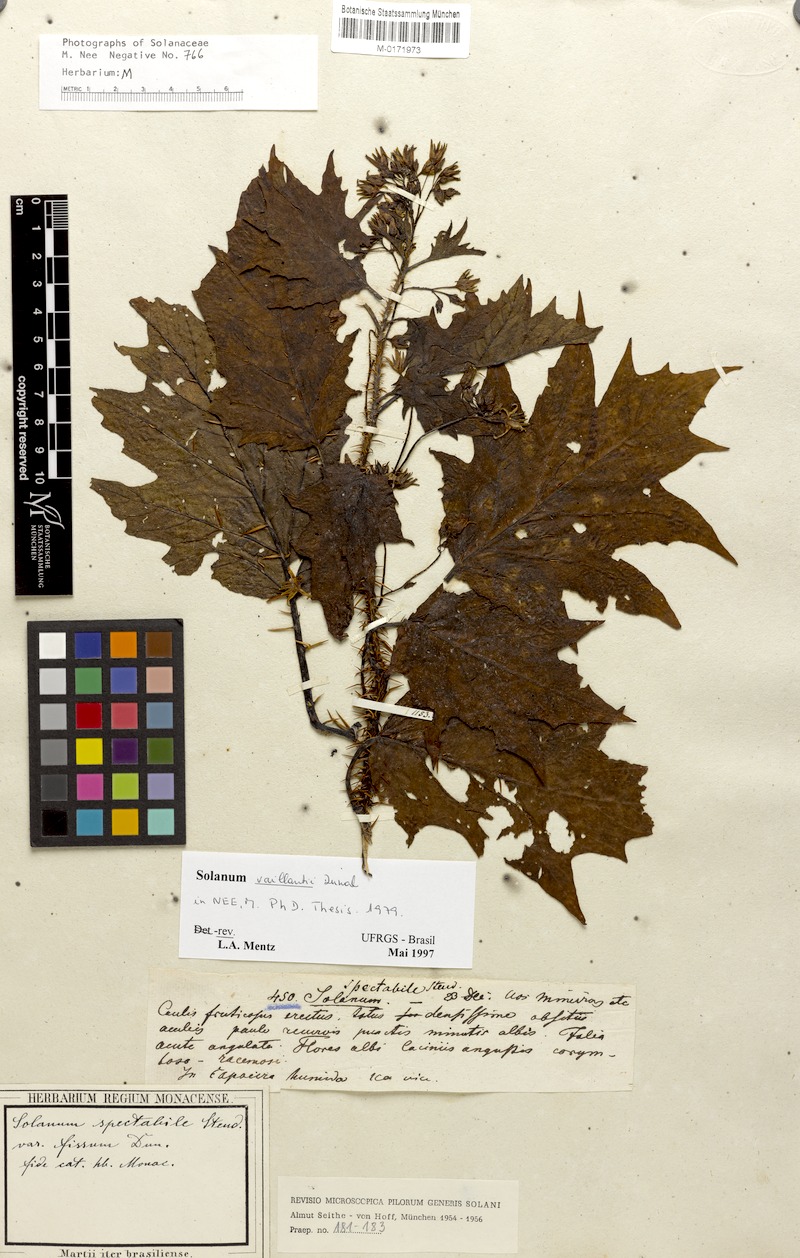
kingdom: Plantae
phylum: Tracheophyta
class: Magnoliopsida
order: Solanales
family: Solanaceae
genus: Solanum
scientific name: Solanum vaillantii
